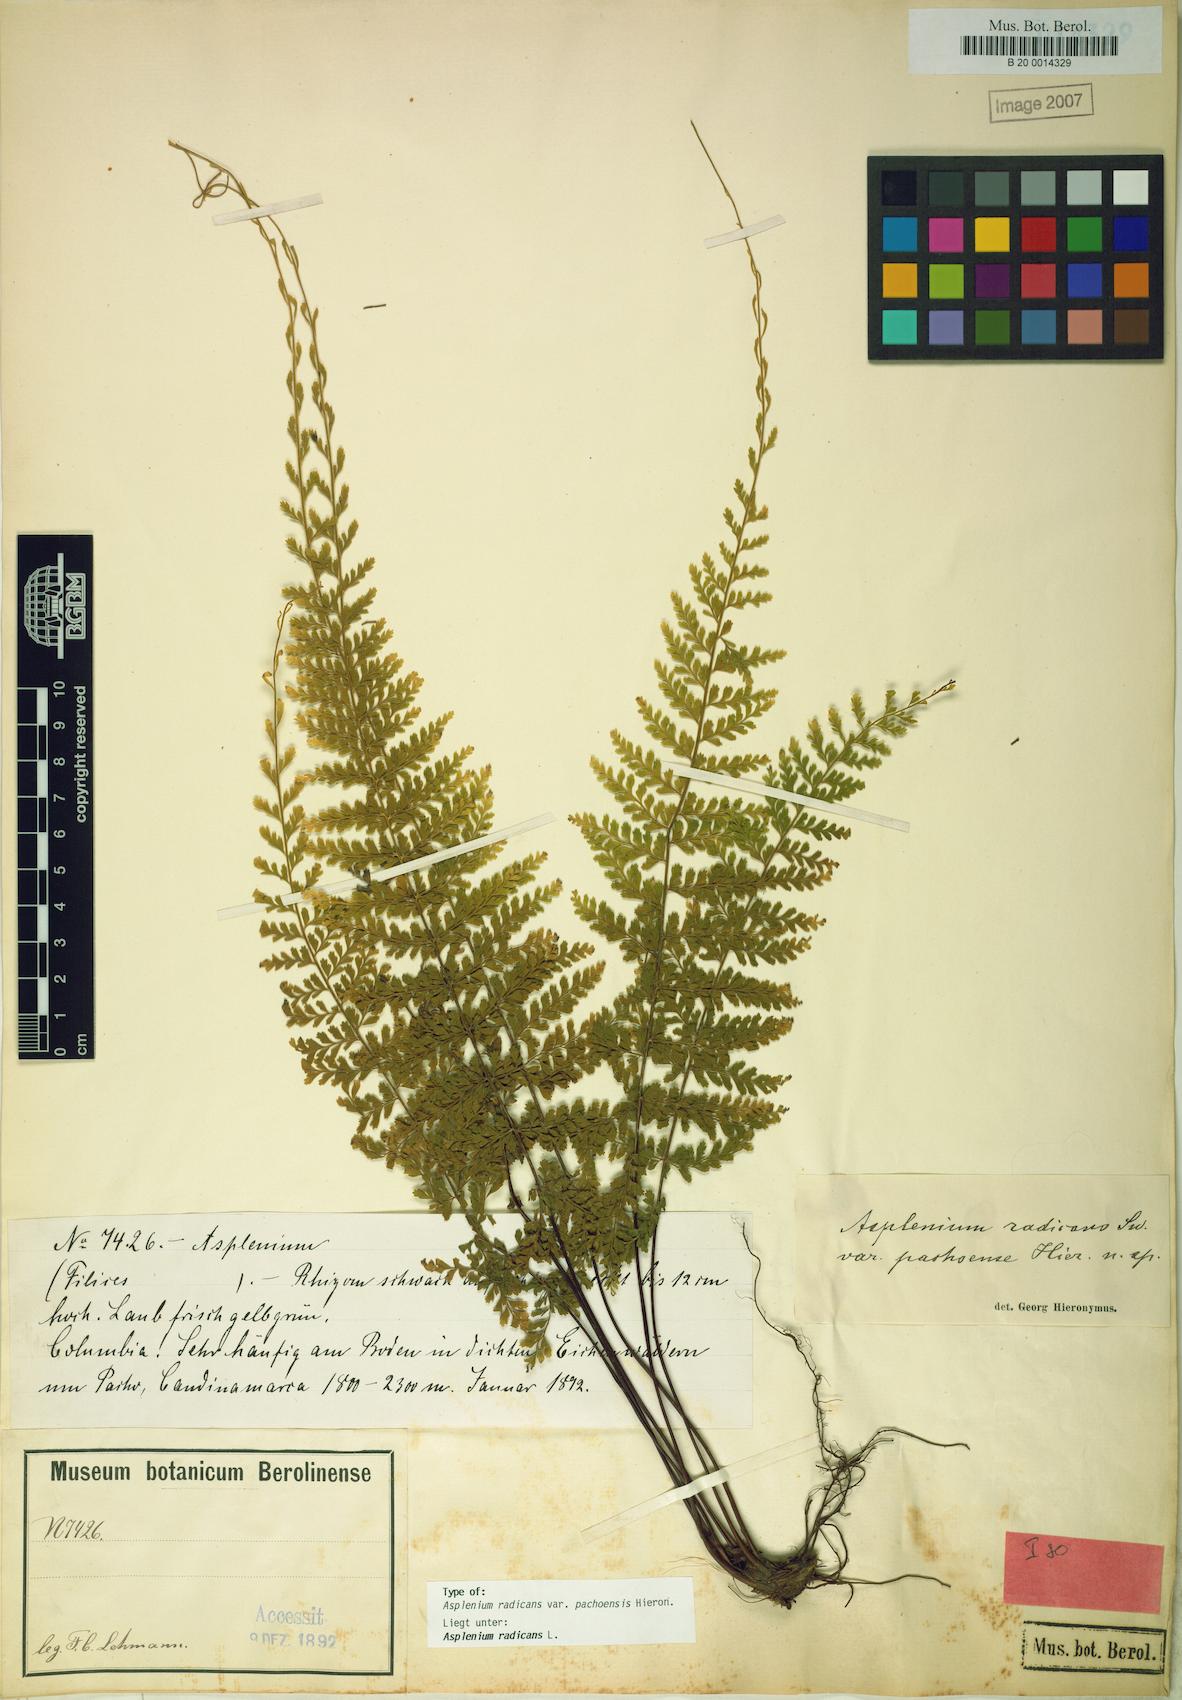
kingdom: Plantae
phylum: Tracheophyta
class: Polypodiopsida
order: Polypodiales
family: Aspleniaceae
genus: Asplenium
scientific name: Asplenium radicans
